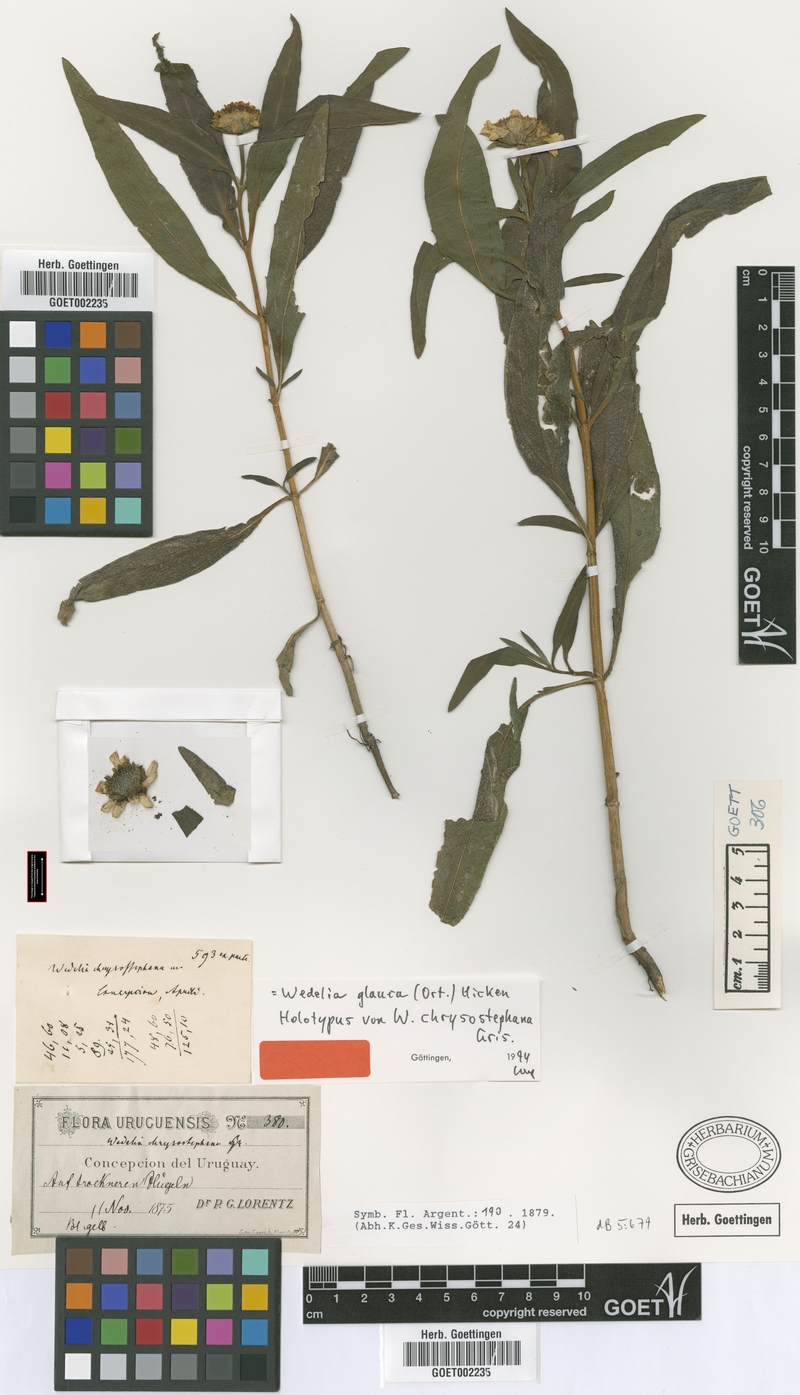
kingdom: Plantae
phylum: Tracheophyta
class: Magnoliopsida
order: Asterales
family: Asteraceae
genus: Pascalia
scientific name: Pascalia glauca
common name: Beach creeping oxeye
